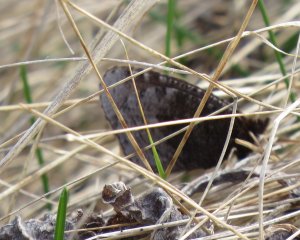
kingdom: Animalia
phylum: Arthropoda
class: Insecta
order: Lepidoptera
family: Nymphalidae
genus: Erebia
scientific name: Erebia discoidalis
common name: Red-disked Alpine
